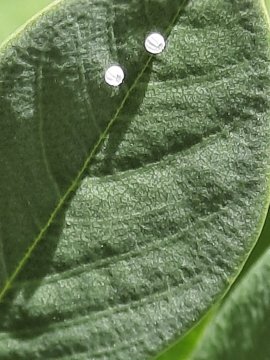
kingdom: Animalia
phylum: Arthropoda
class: Insecta
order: Lepidoptera
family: Hesperiidae
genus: Gesta
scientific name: Gesta
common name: Wild Indigo Duskywing
